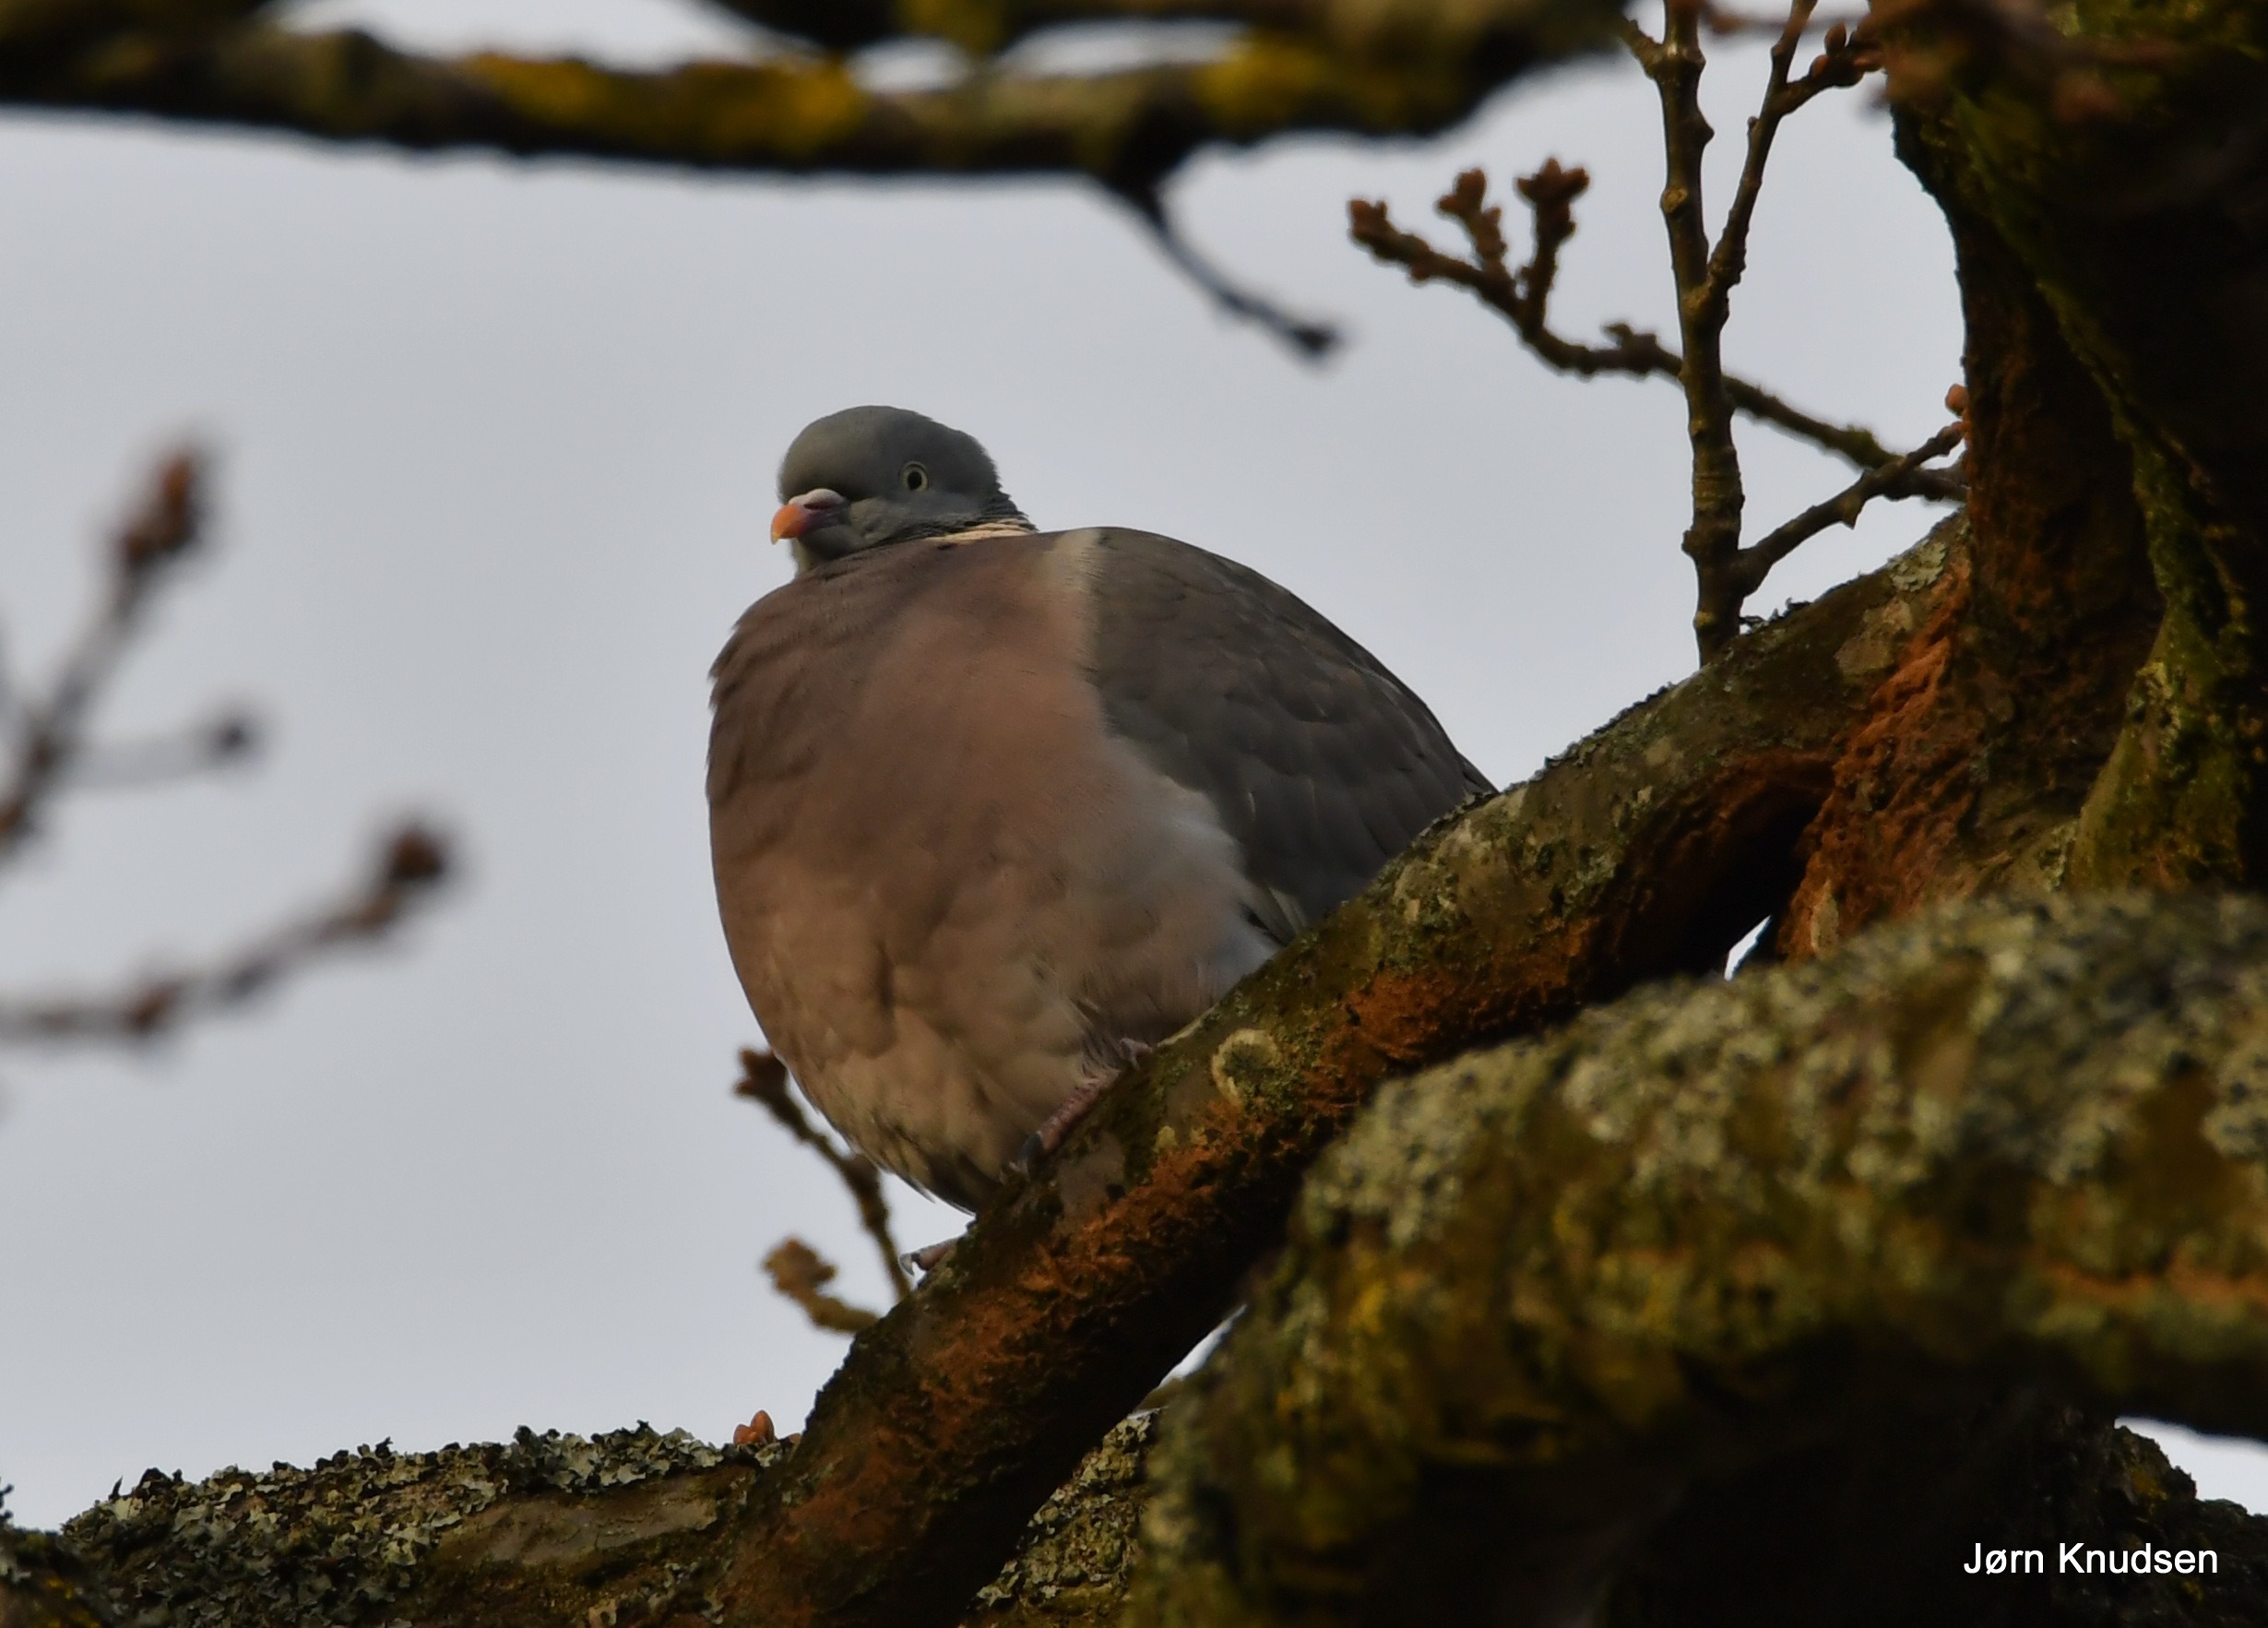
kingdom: Animalia
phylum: Chordata
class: Aves
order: Columbiformes
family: Columbidae
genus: Columba
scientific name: Columba palumbus
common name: Ringdue
